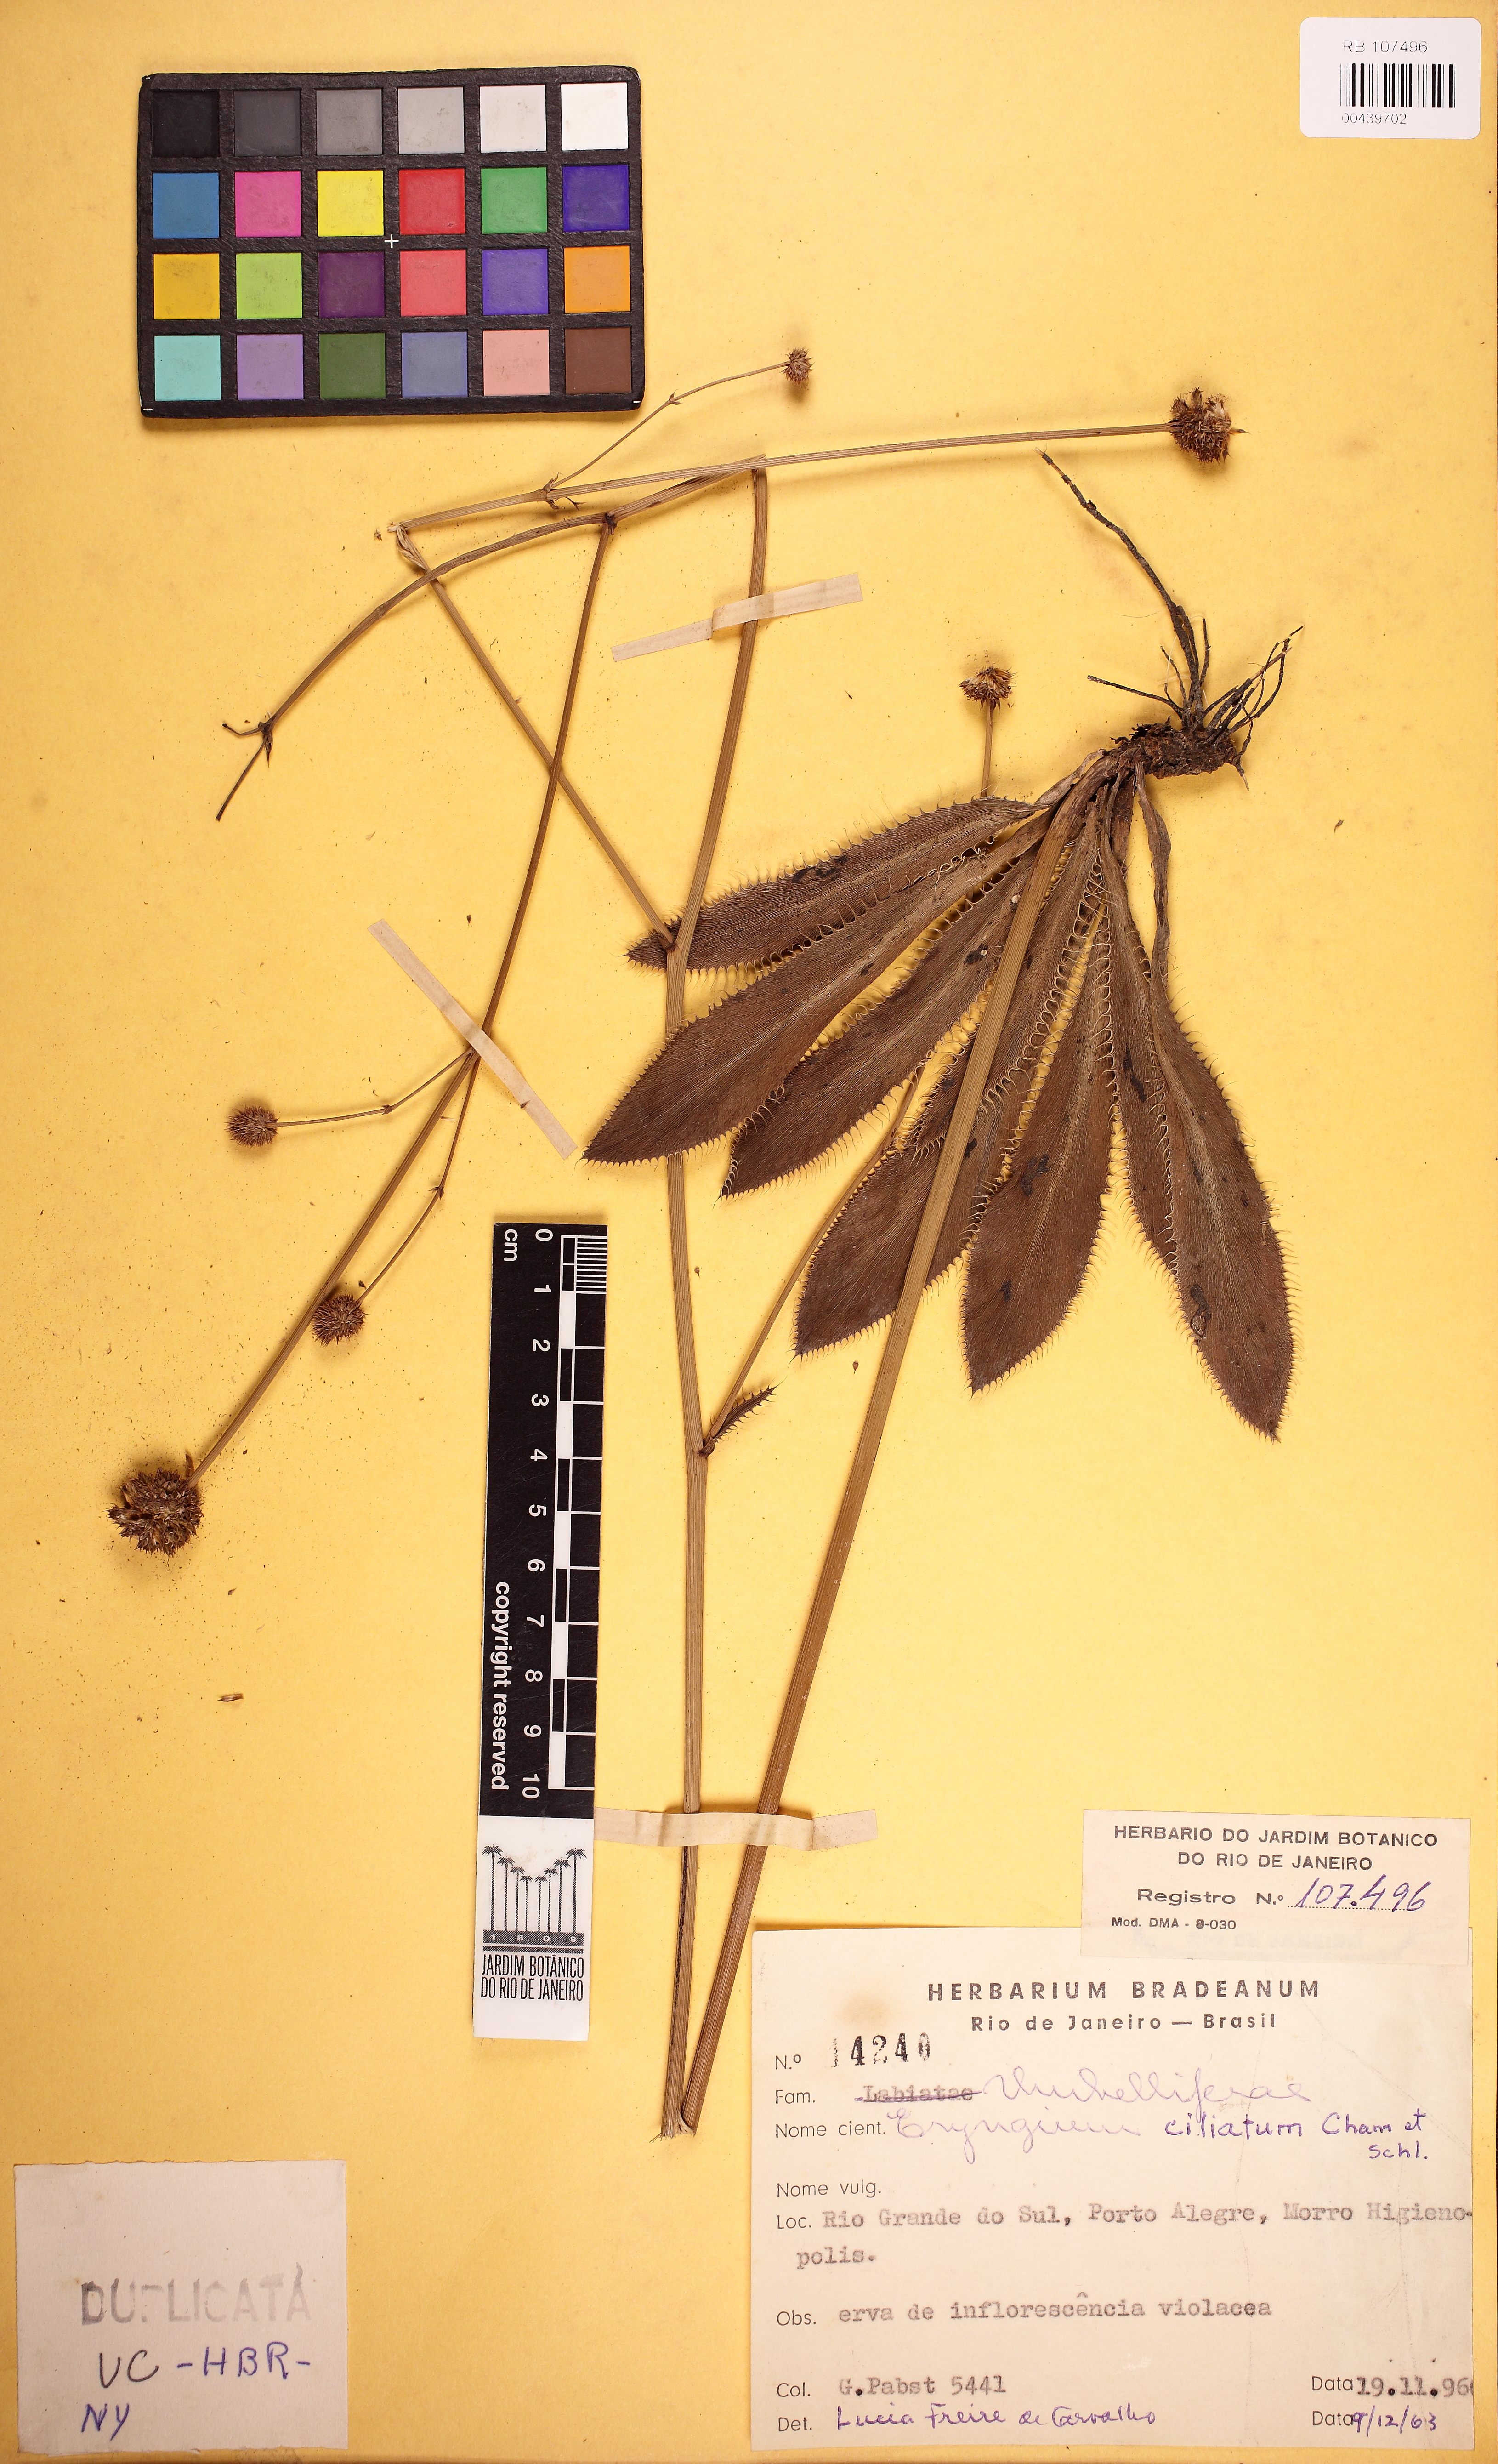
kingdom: Plantae
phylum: Tracheophyta
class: Magnoliopsida
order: Apiales
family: Apiaceae
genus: Eryngium
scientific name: Eryngium ciliatum
